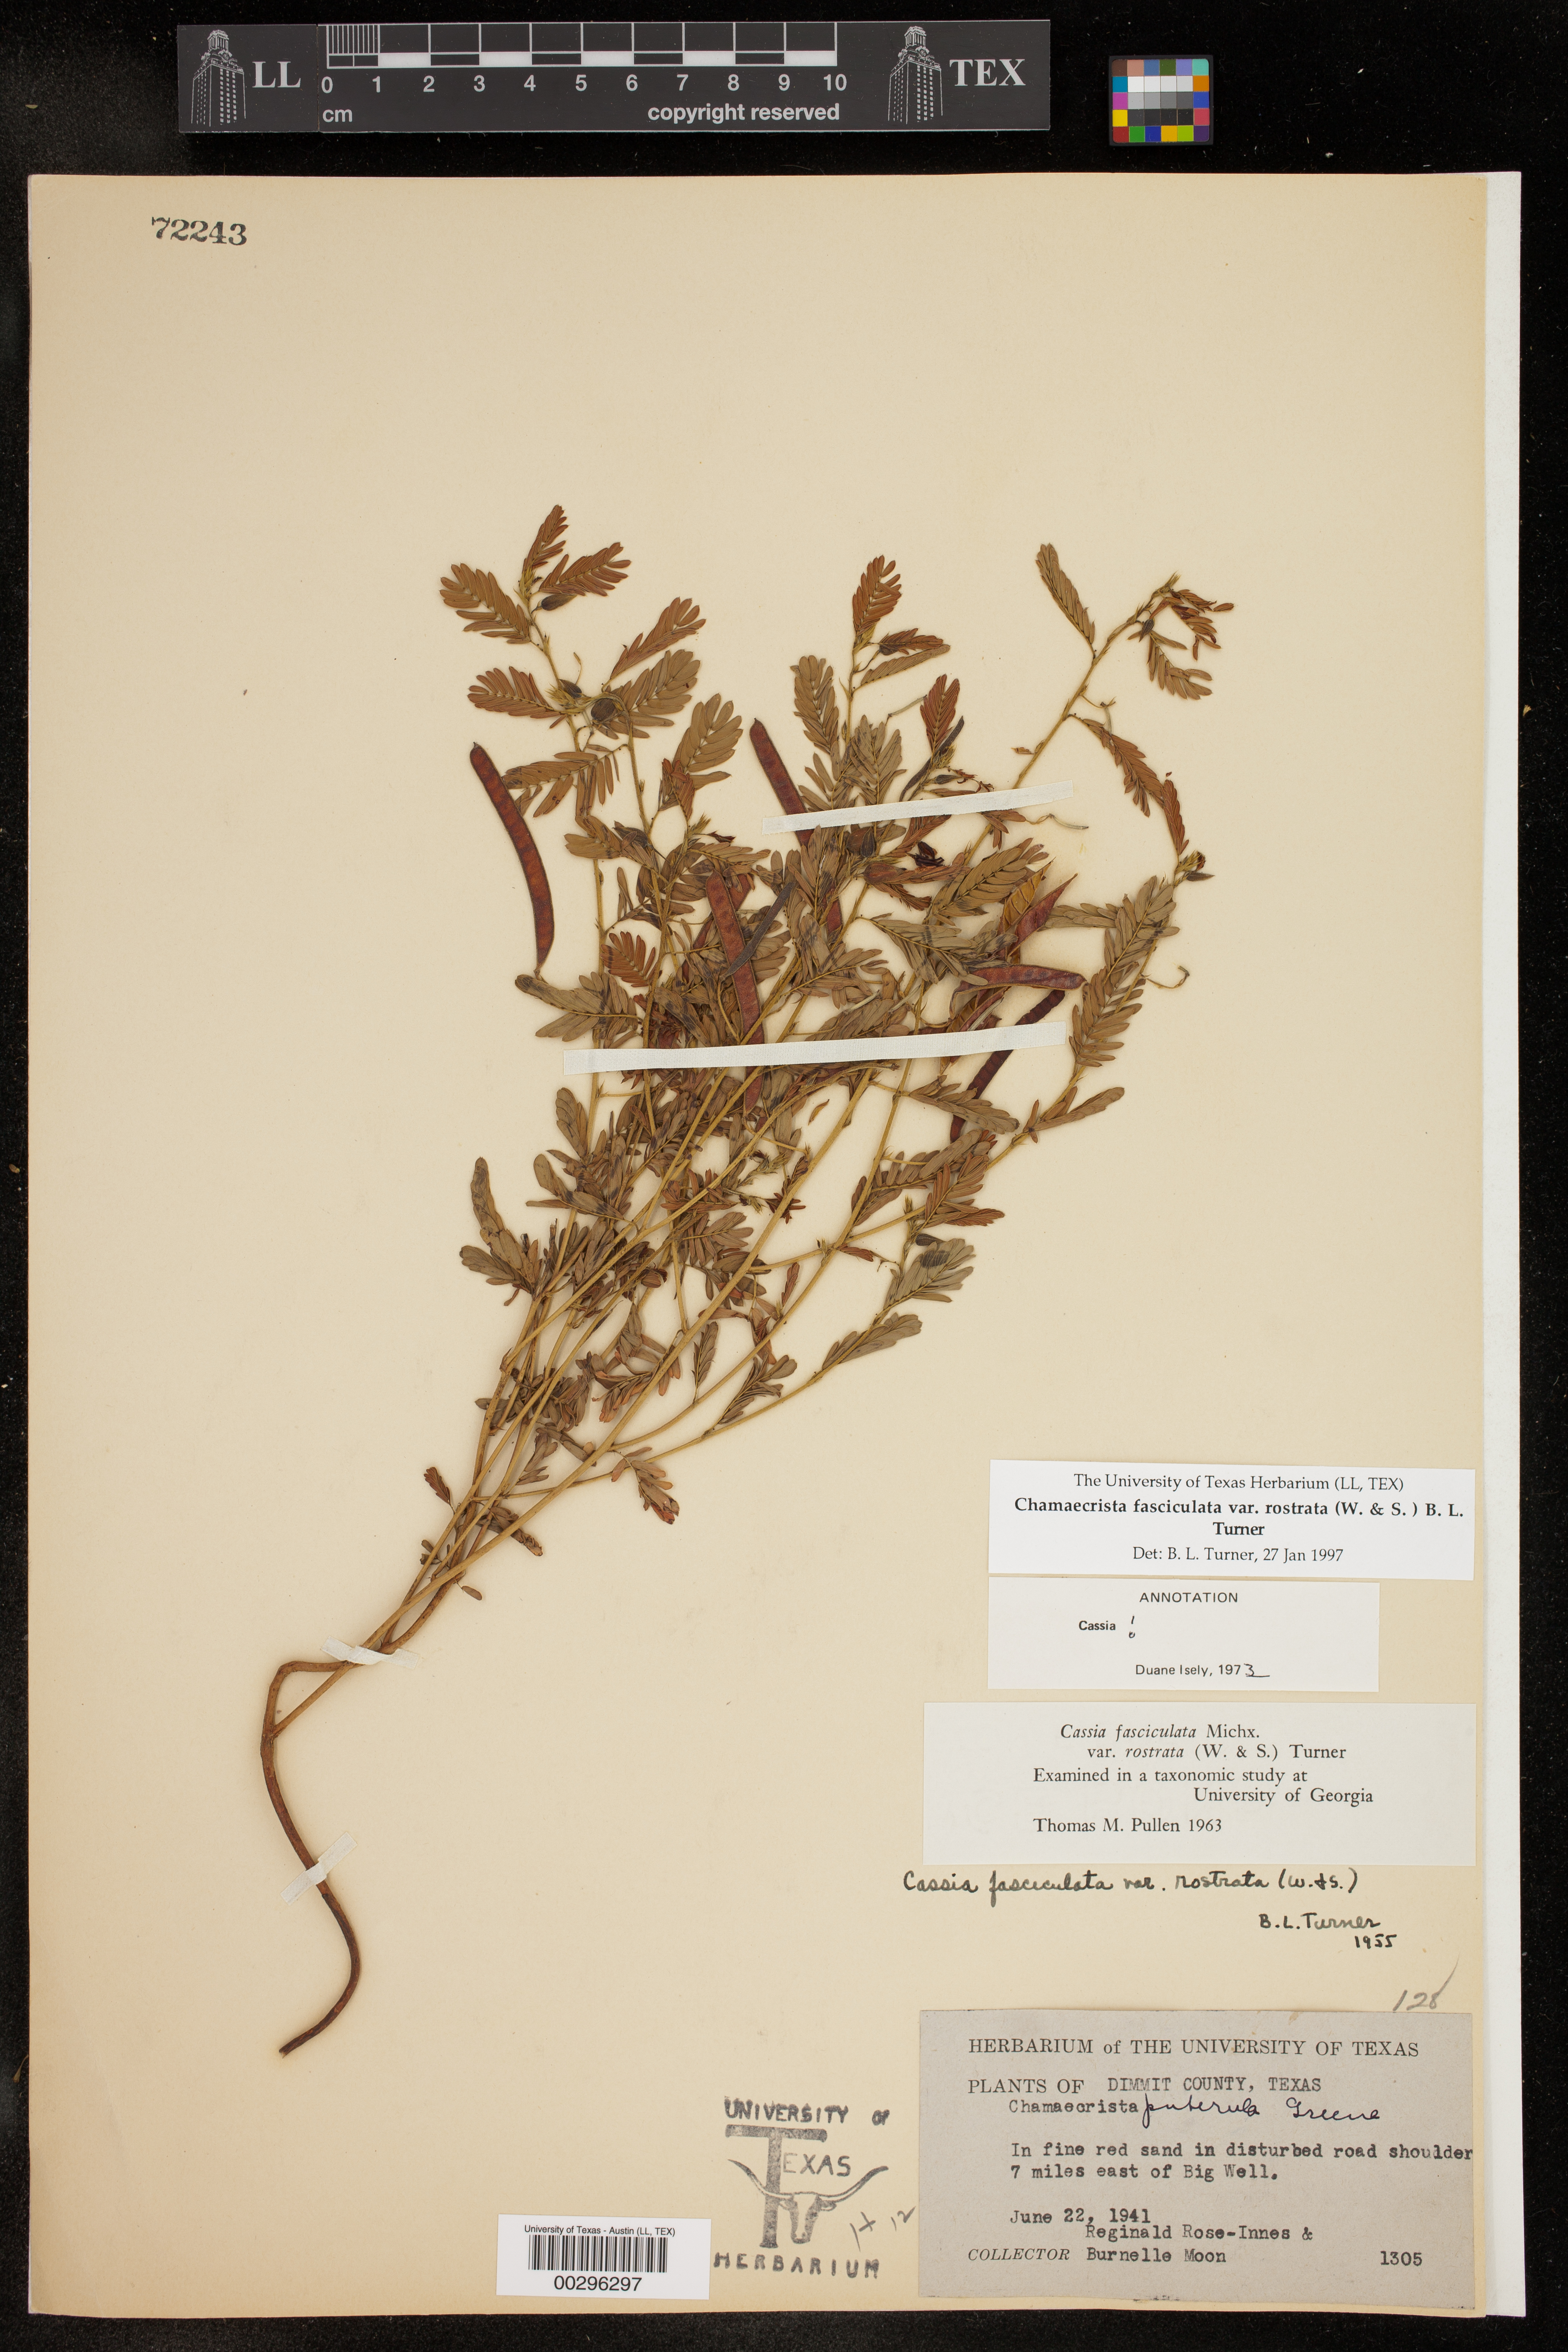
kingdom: Plantae
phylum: Tracheophyta
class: Magnoliopsida
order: Fabales
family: Fabaceae
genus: Chamaecrista
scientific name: Chamaecrista fasciculata
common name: Golden cassia
